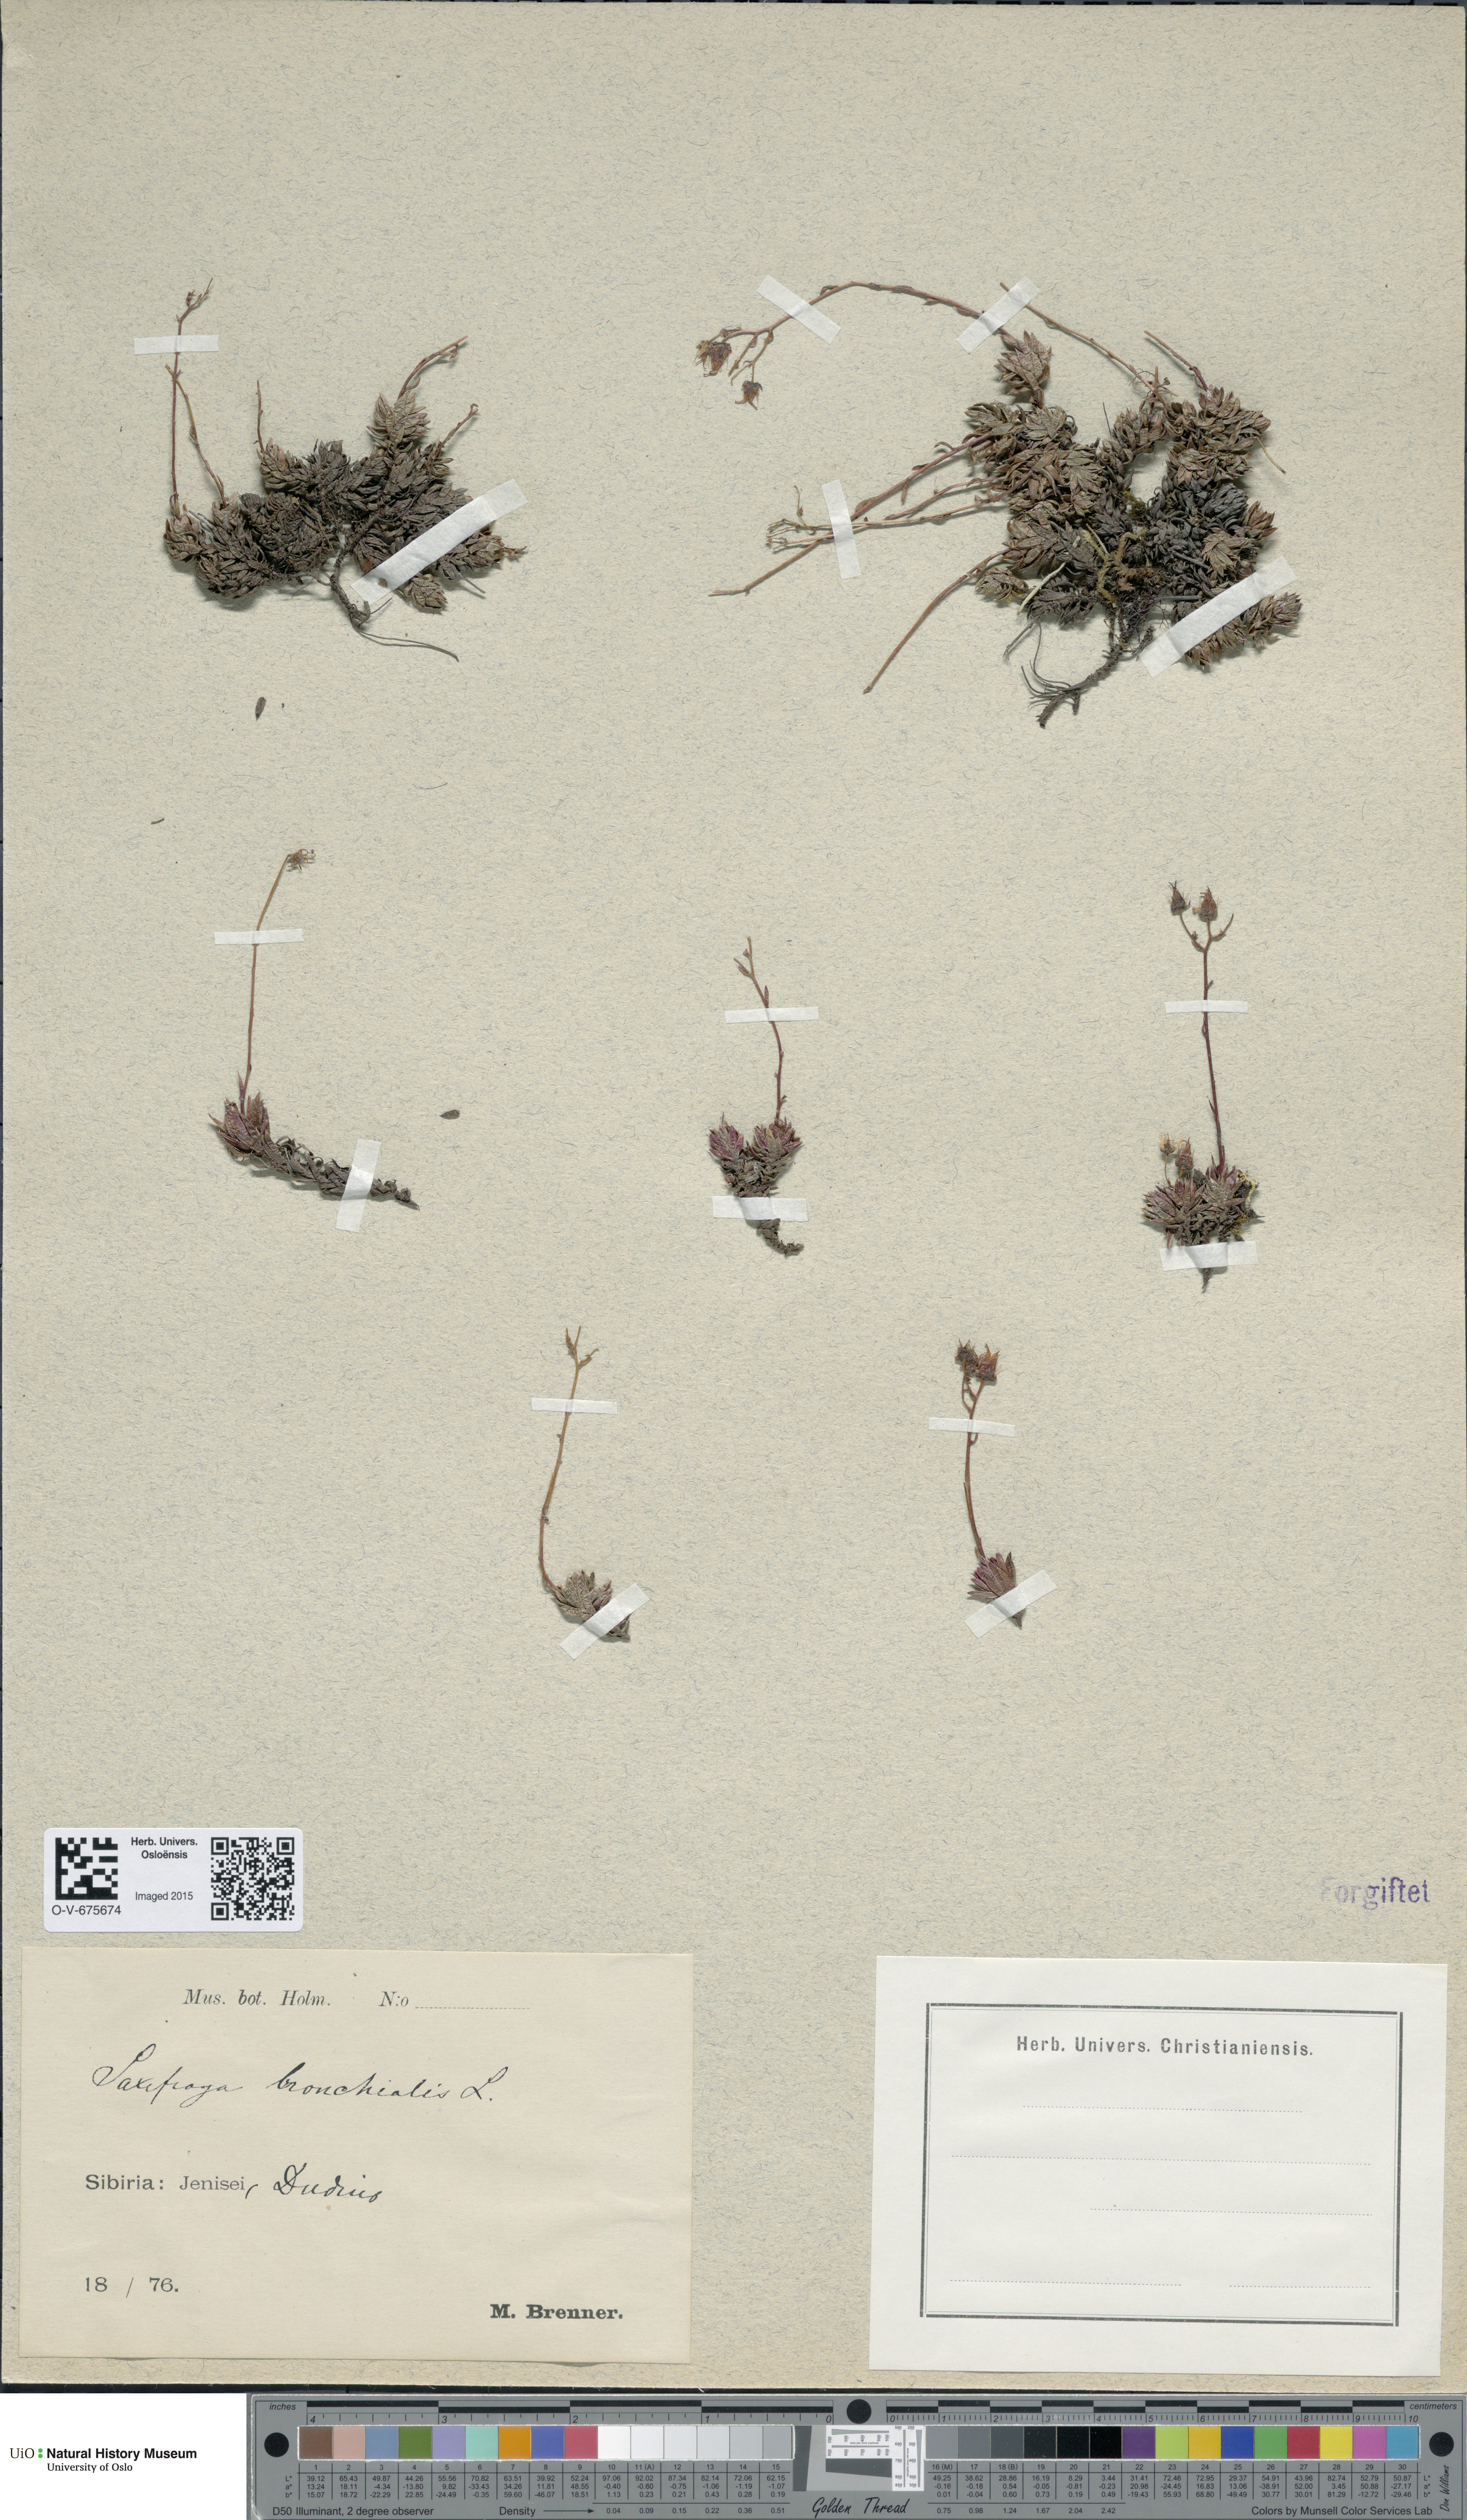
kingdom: Plantae
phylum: Tracheophyta
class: Magnoliopsida
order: Saxifragales
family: Saxifragaceae
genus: Saxifraga
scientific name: Saxifraga bronchialis
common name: Matted saxifrage
